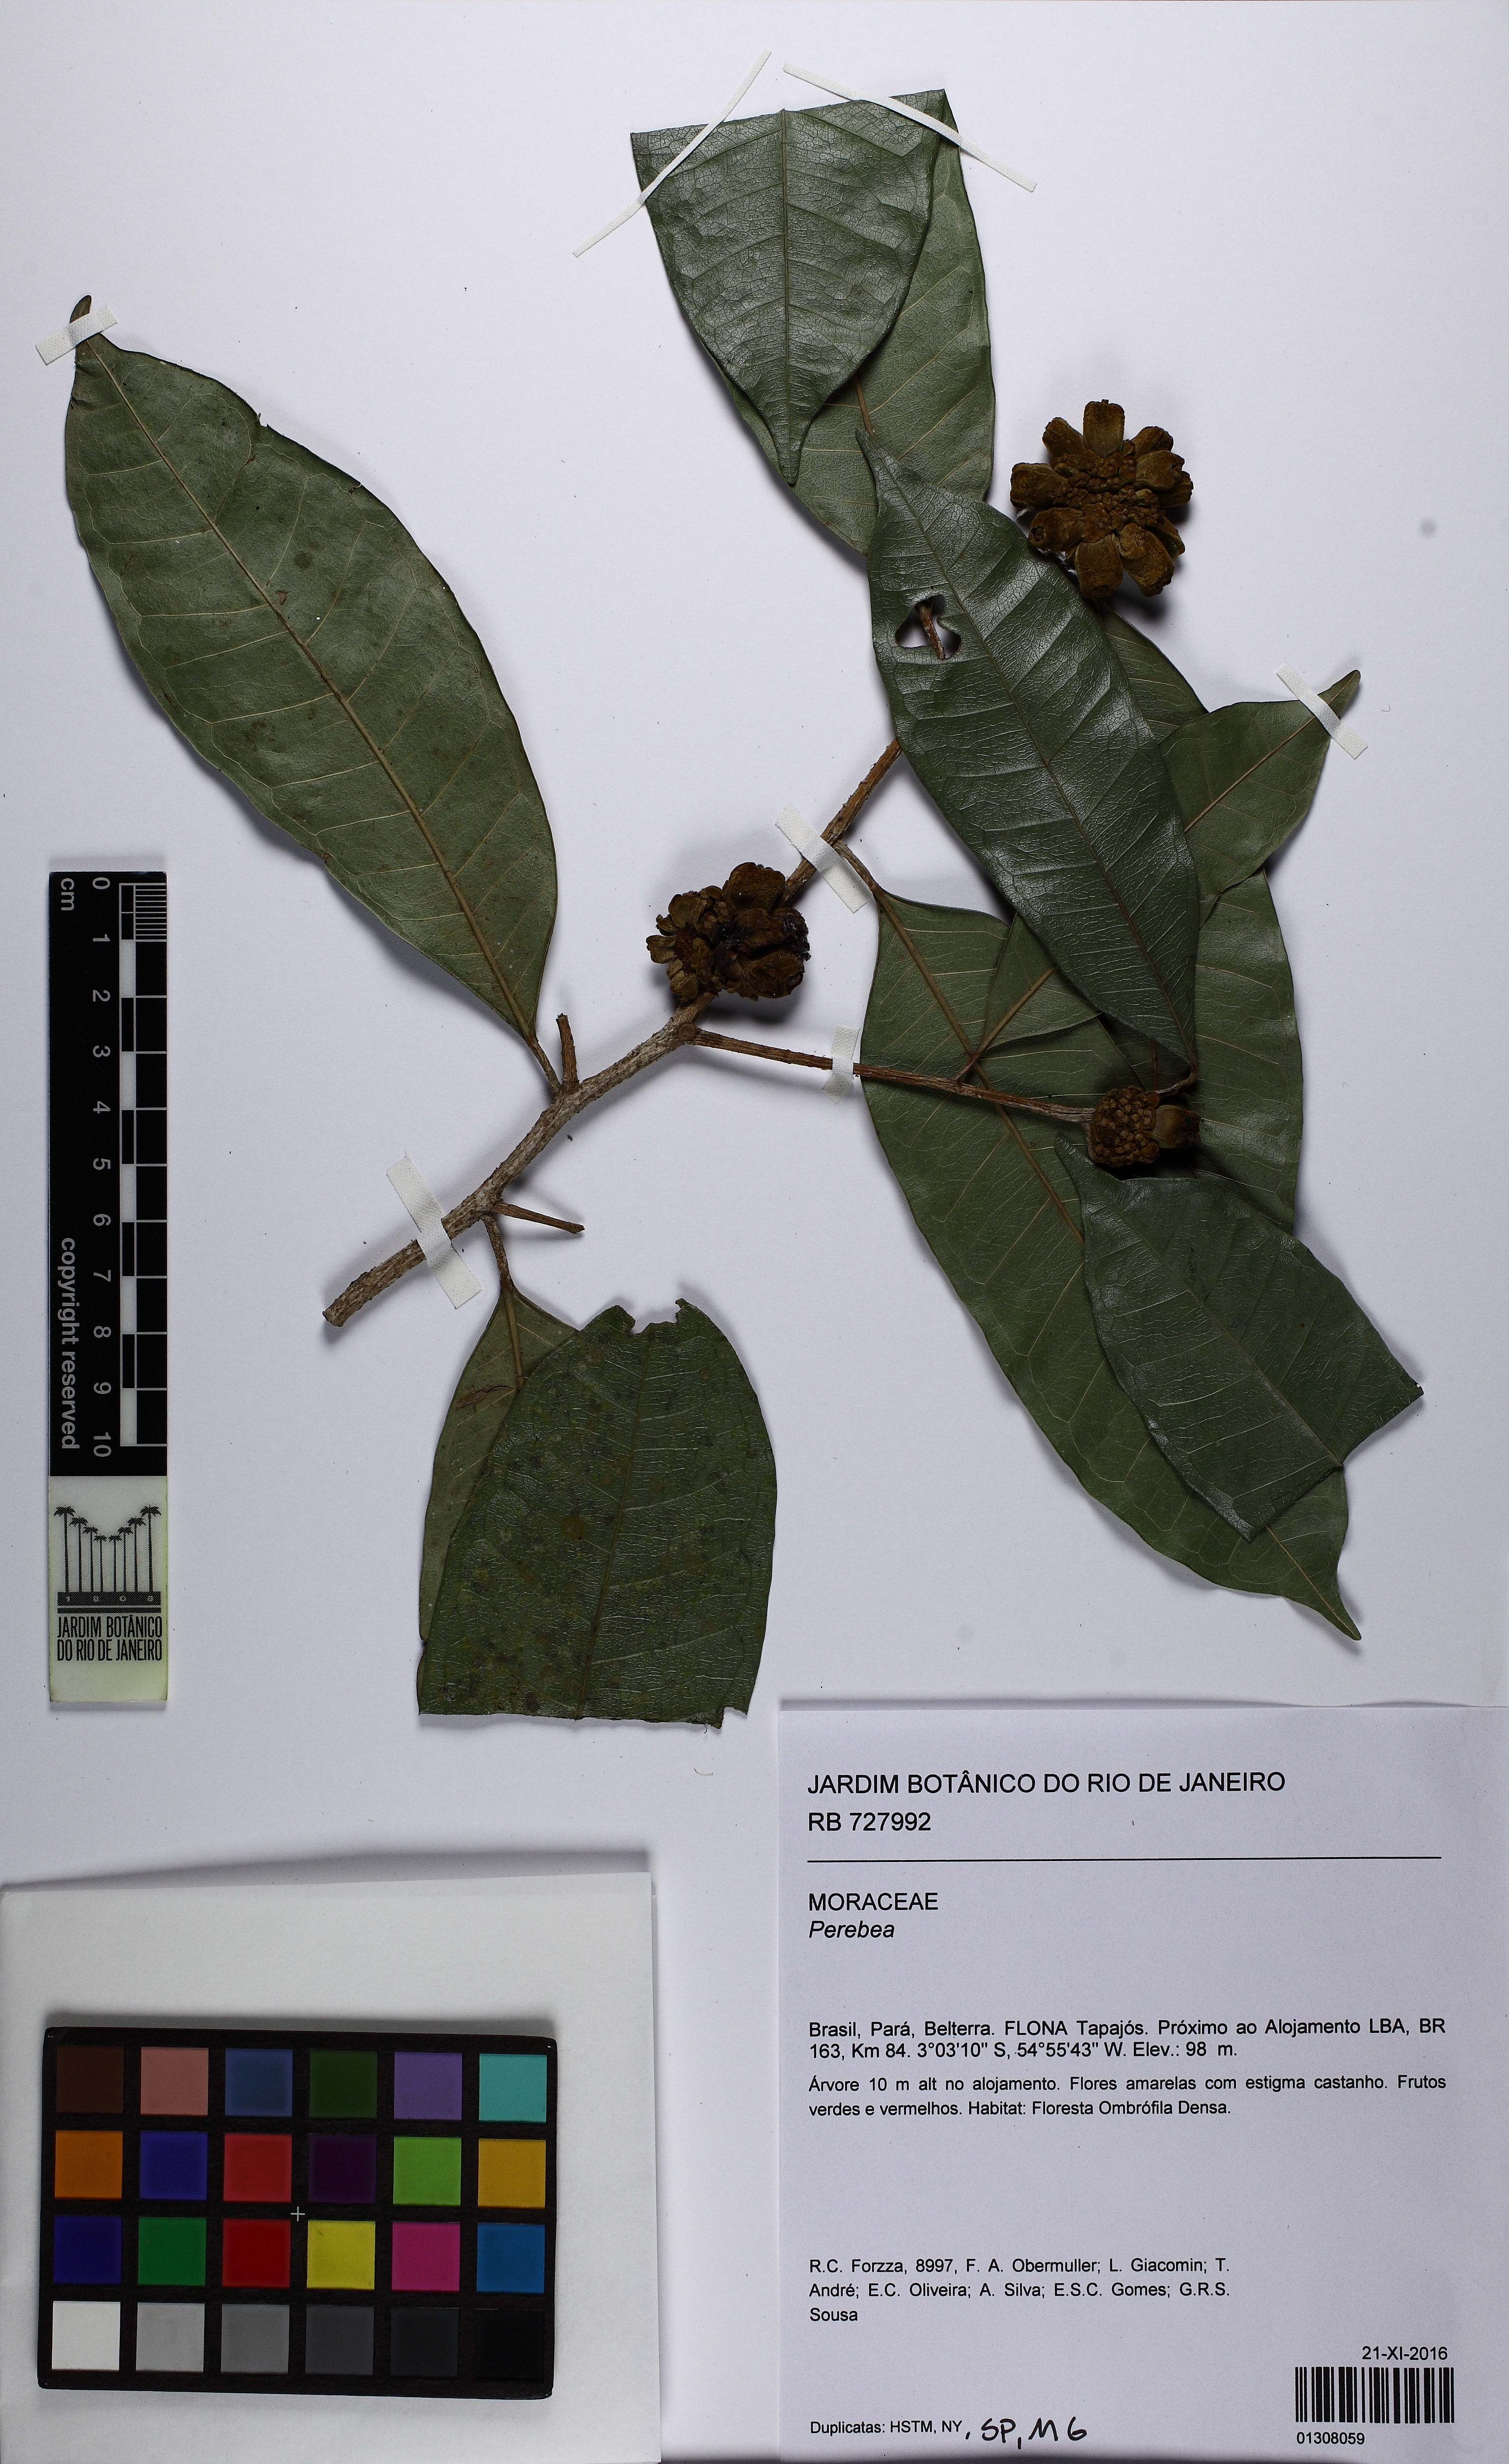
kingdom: Plantae
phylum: Tracheophyta
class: Magnoliopsida
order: Rosales
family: Moraceae
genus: Perebea
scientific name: Perebea
